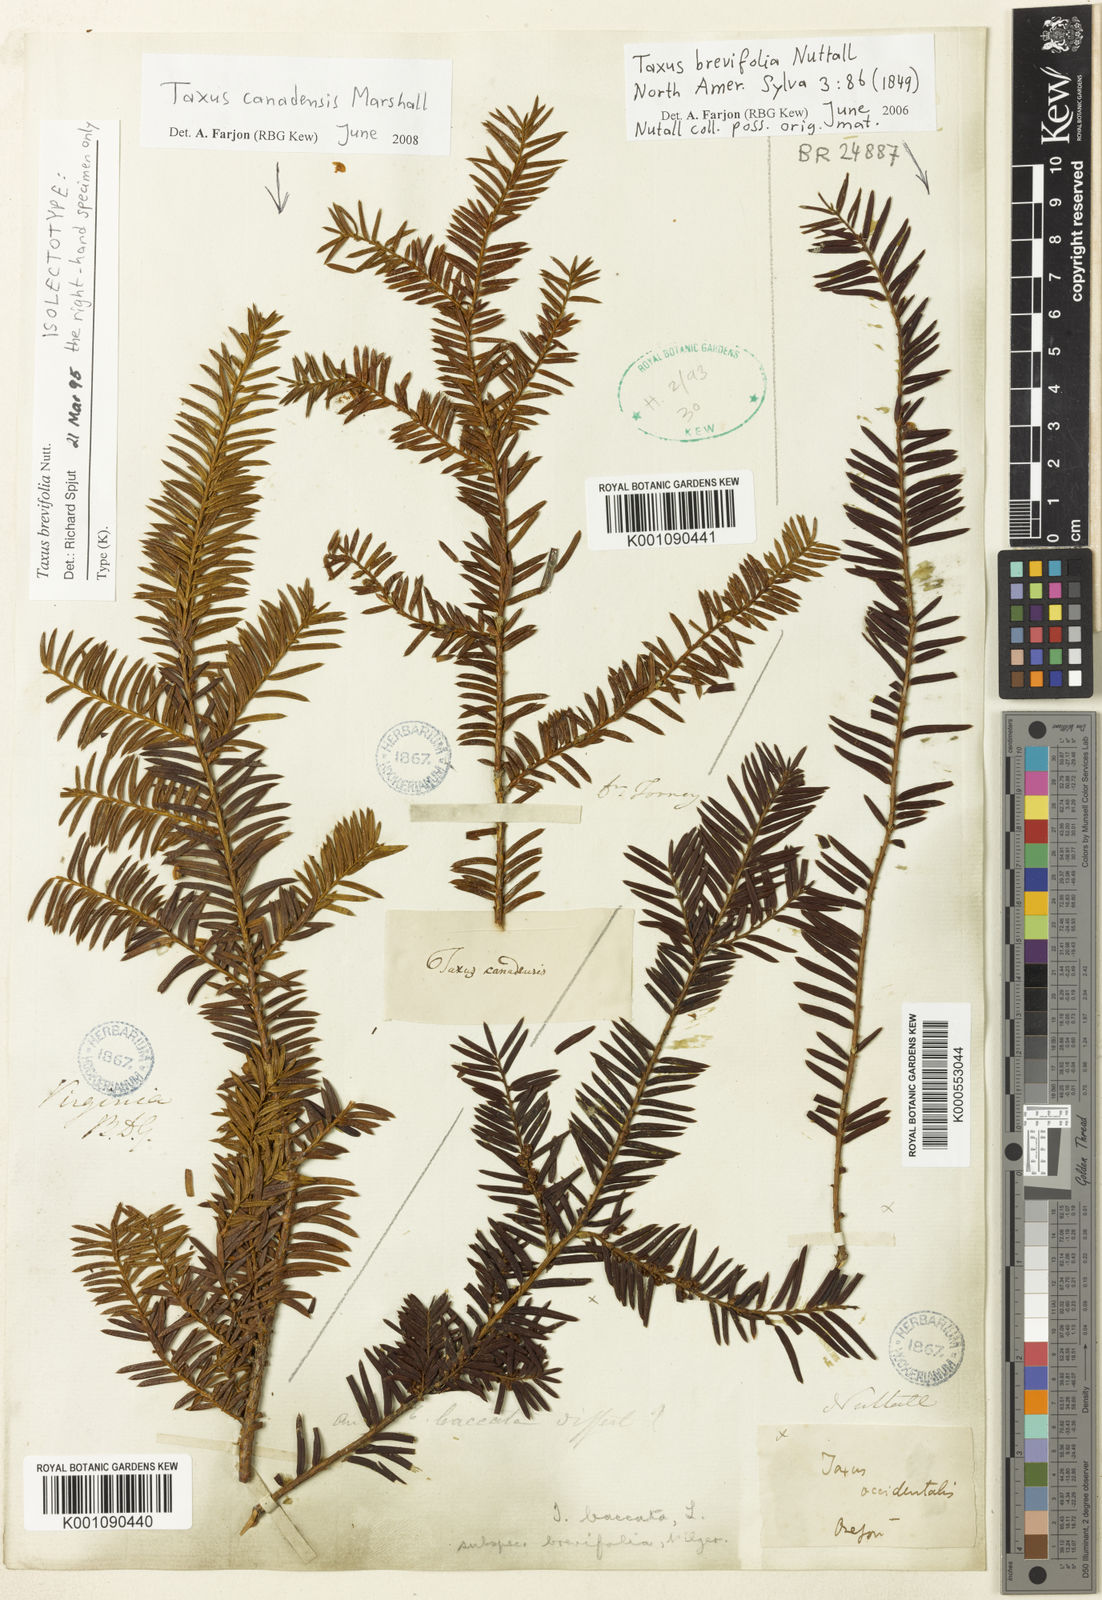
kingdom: Plantae
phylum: Tracheophyta
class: Pinopsida
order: Pinales
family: Taxaceae
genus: Taxus
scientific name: Taxus brevifolia
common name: Pacific yew
